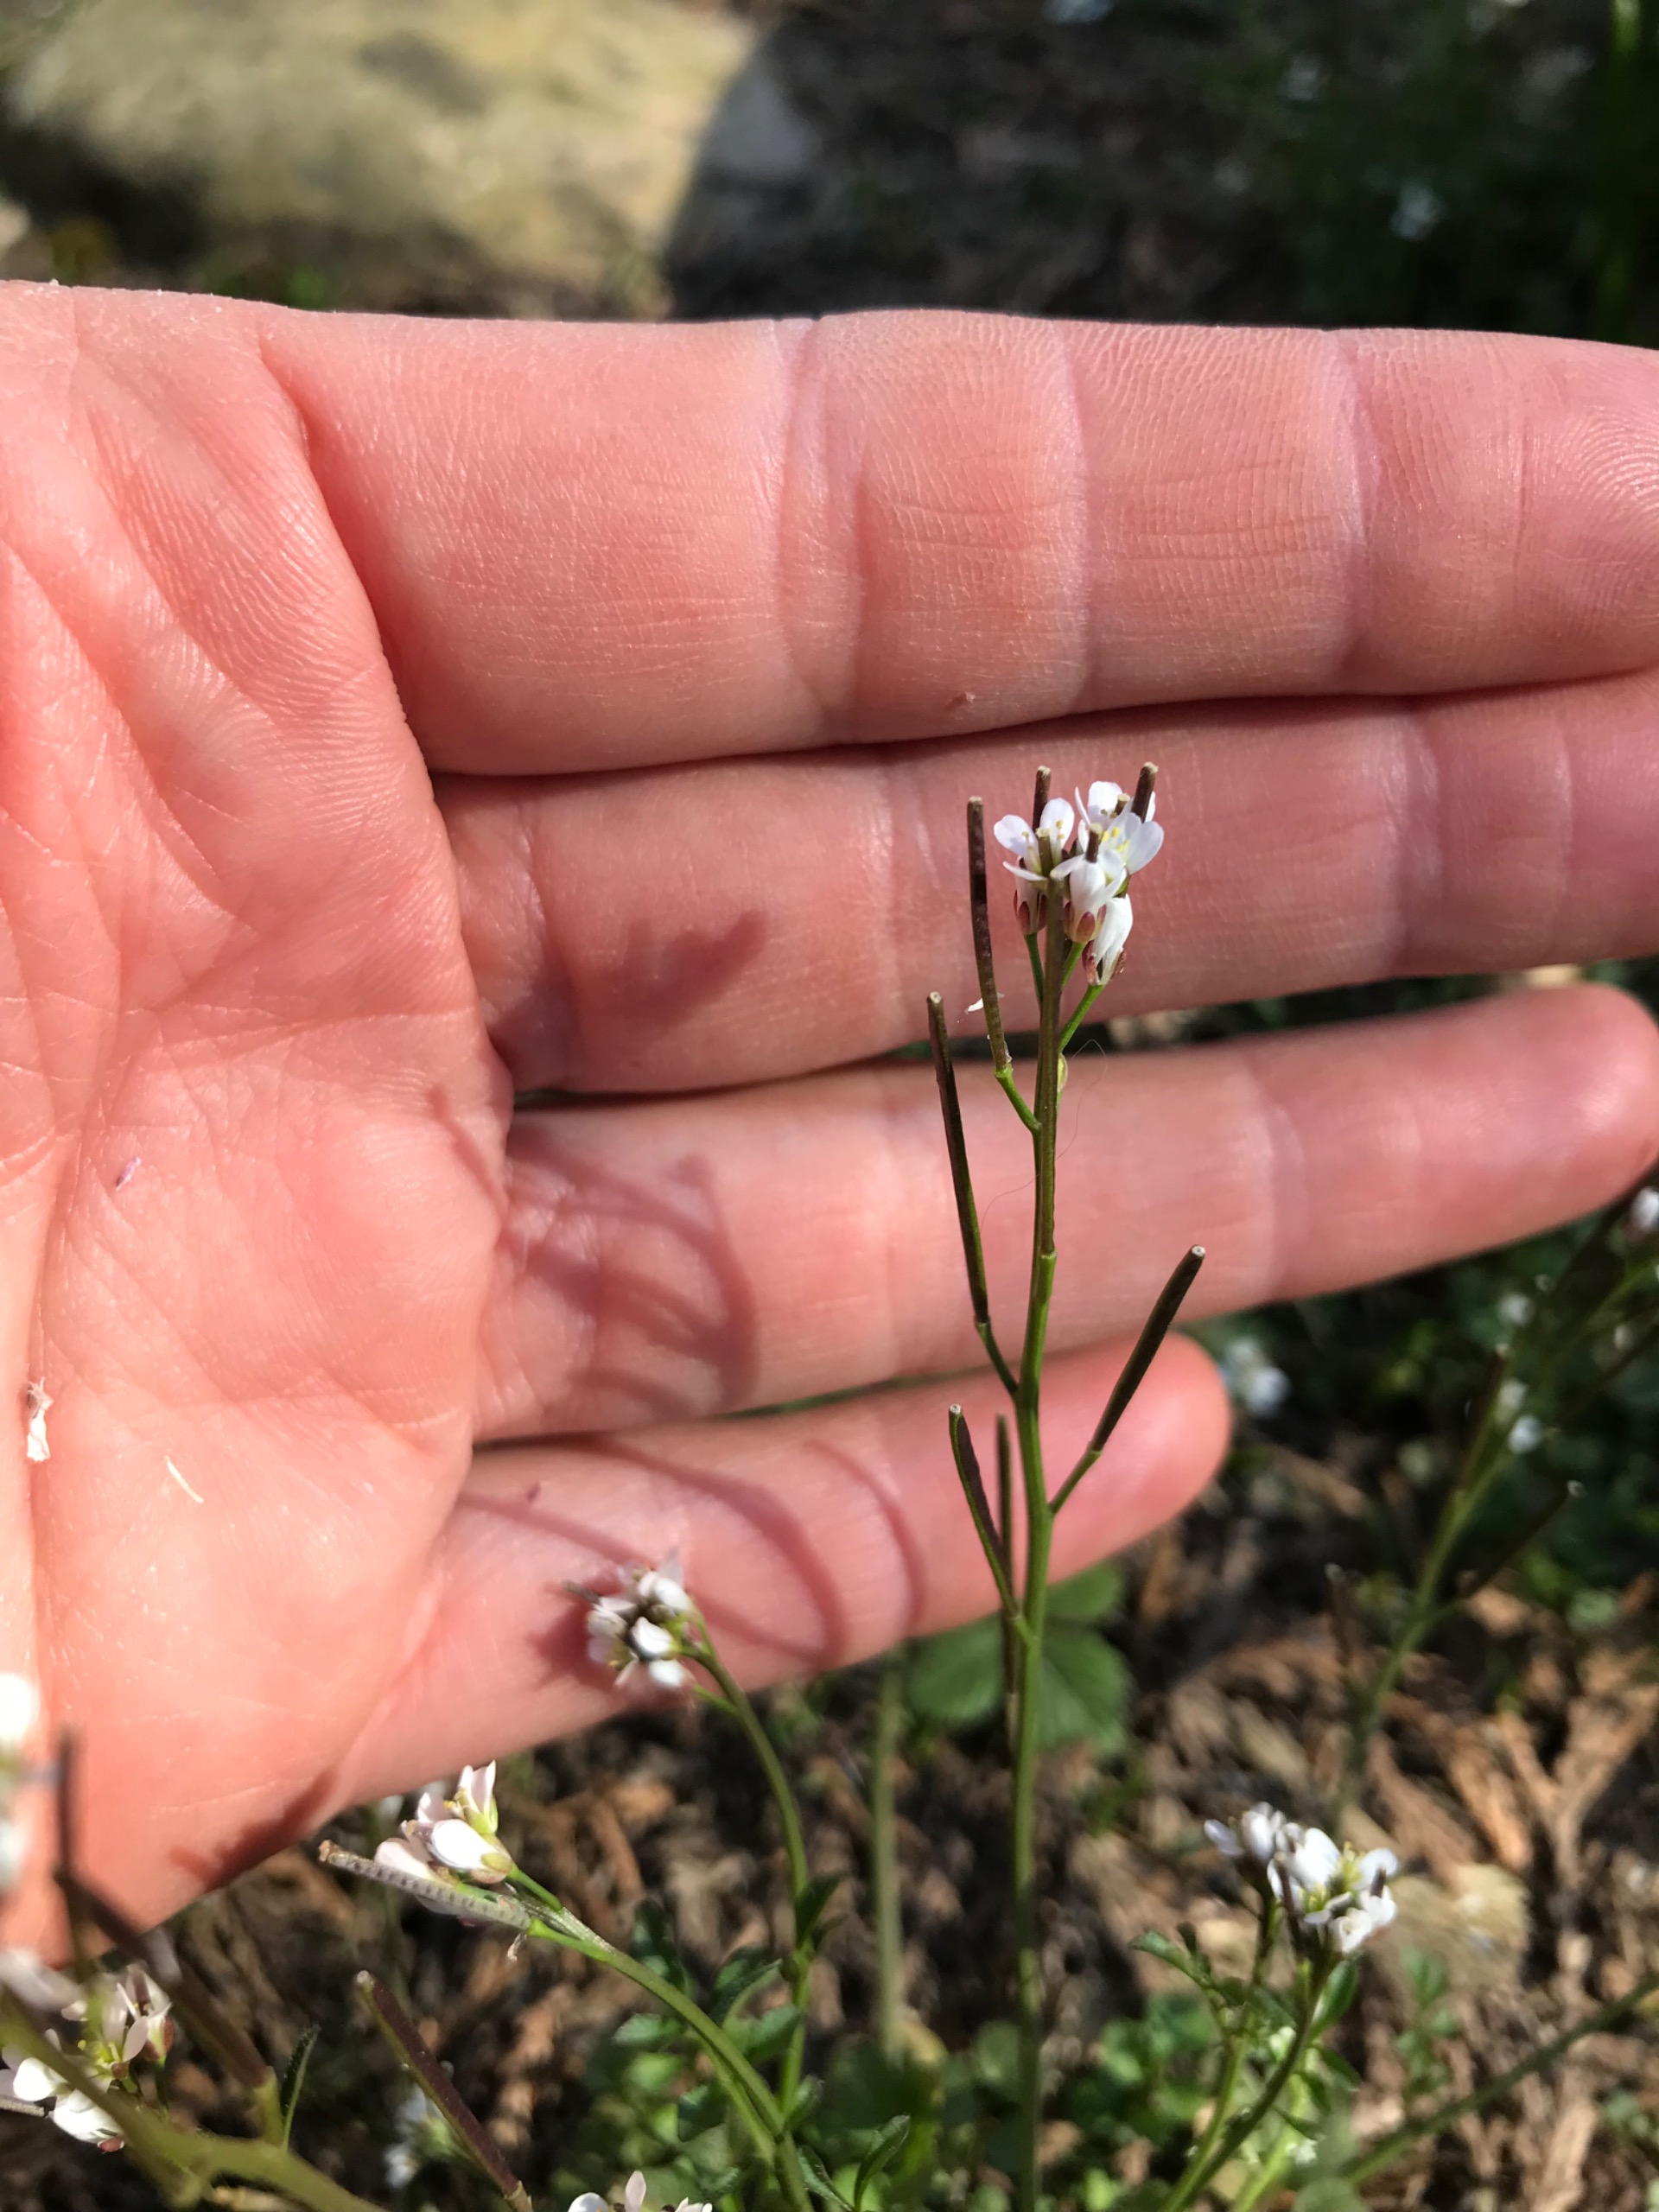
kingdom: Plantae
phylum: Tracheophyta
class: Magnoliopsida
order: Brassicales
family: Brassicaceae
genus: Cardamine
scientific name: Cardamine hirsuta
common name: Roset-springklap
